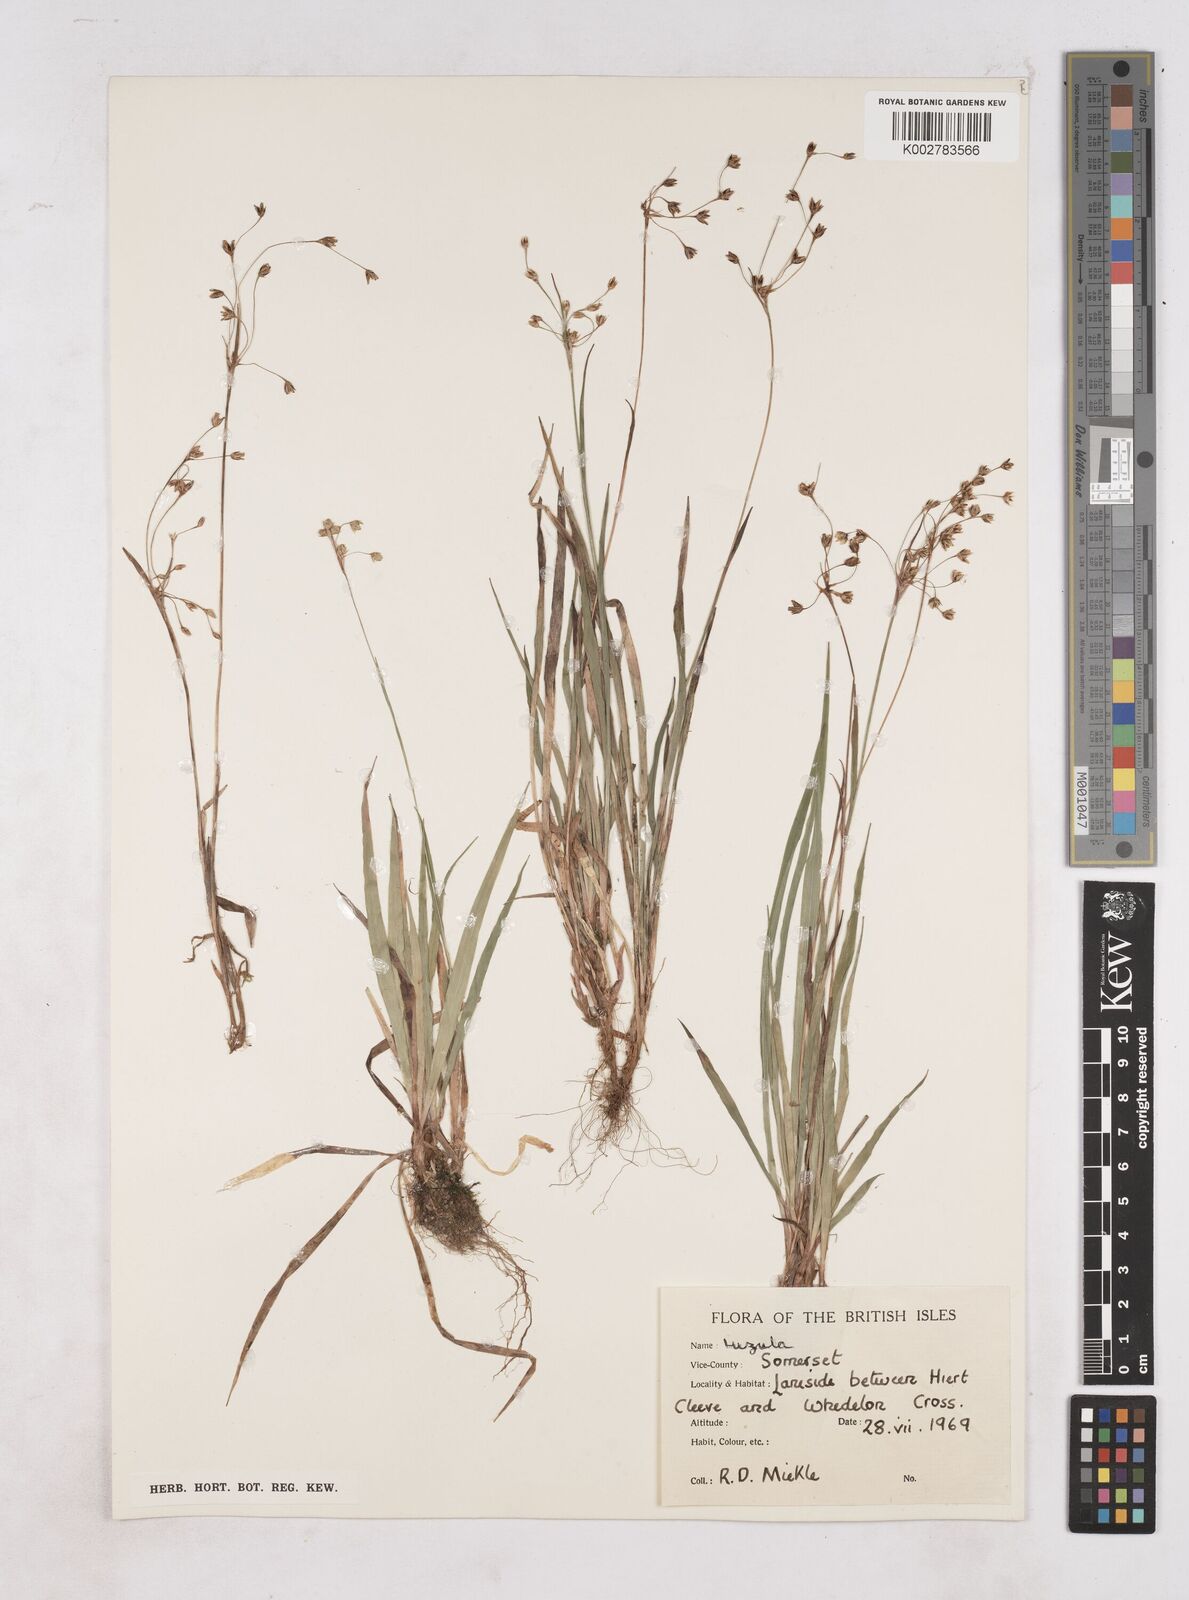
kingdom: Plantae
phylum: Tracheophyta
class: Liliopsida
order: Poales
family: Juncaceae
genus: Luzula
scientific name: Luzula
